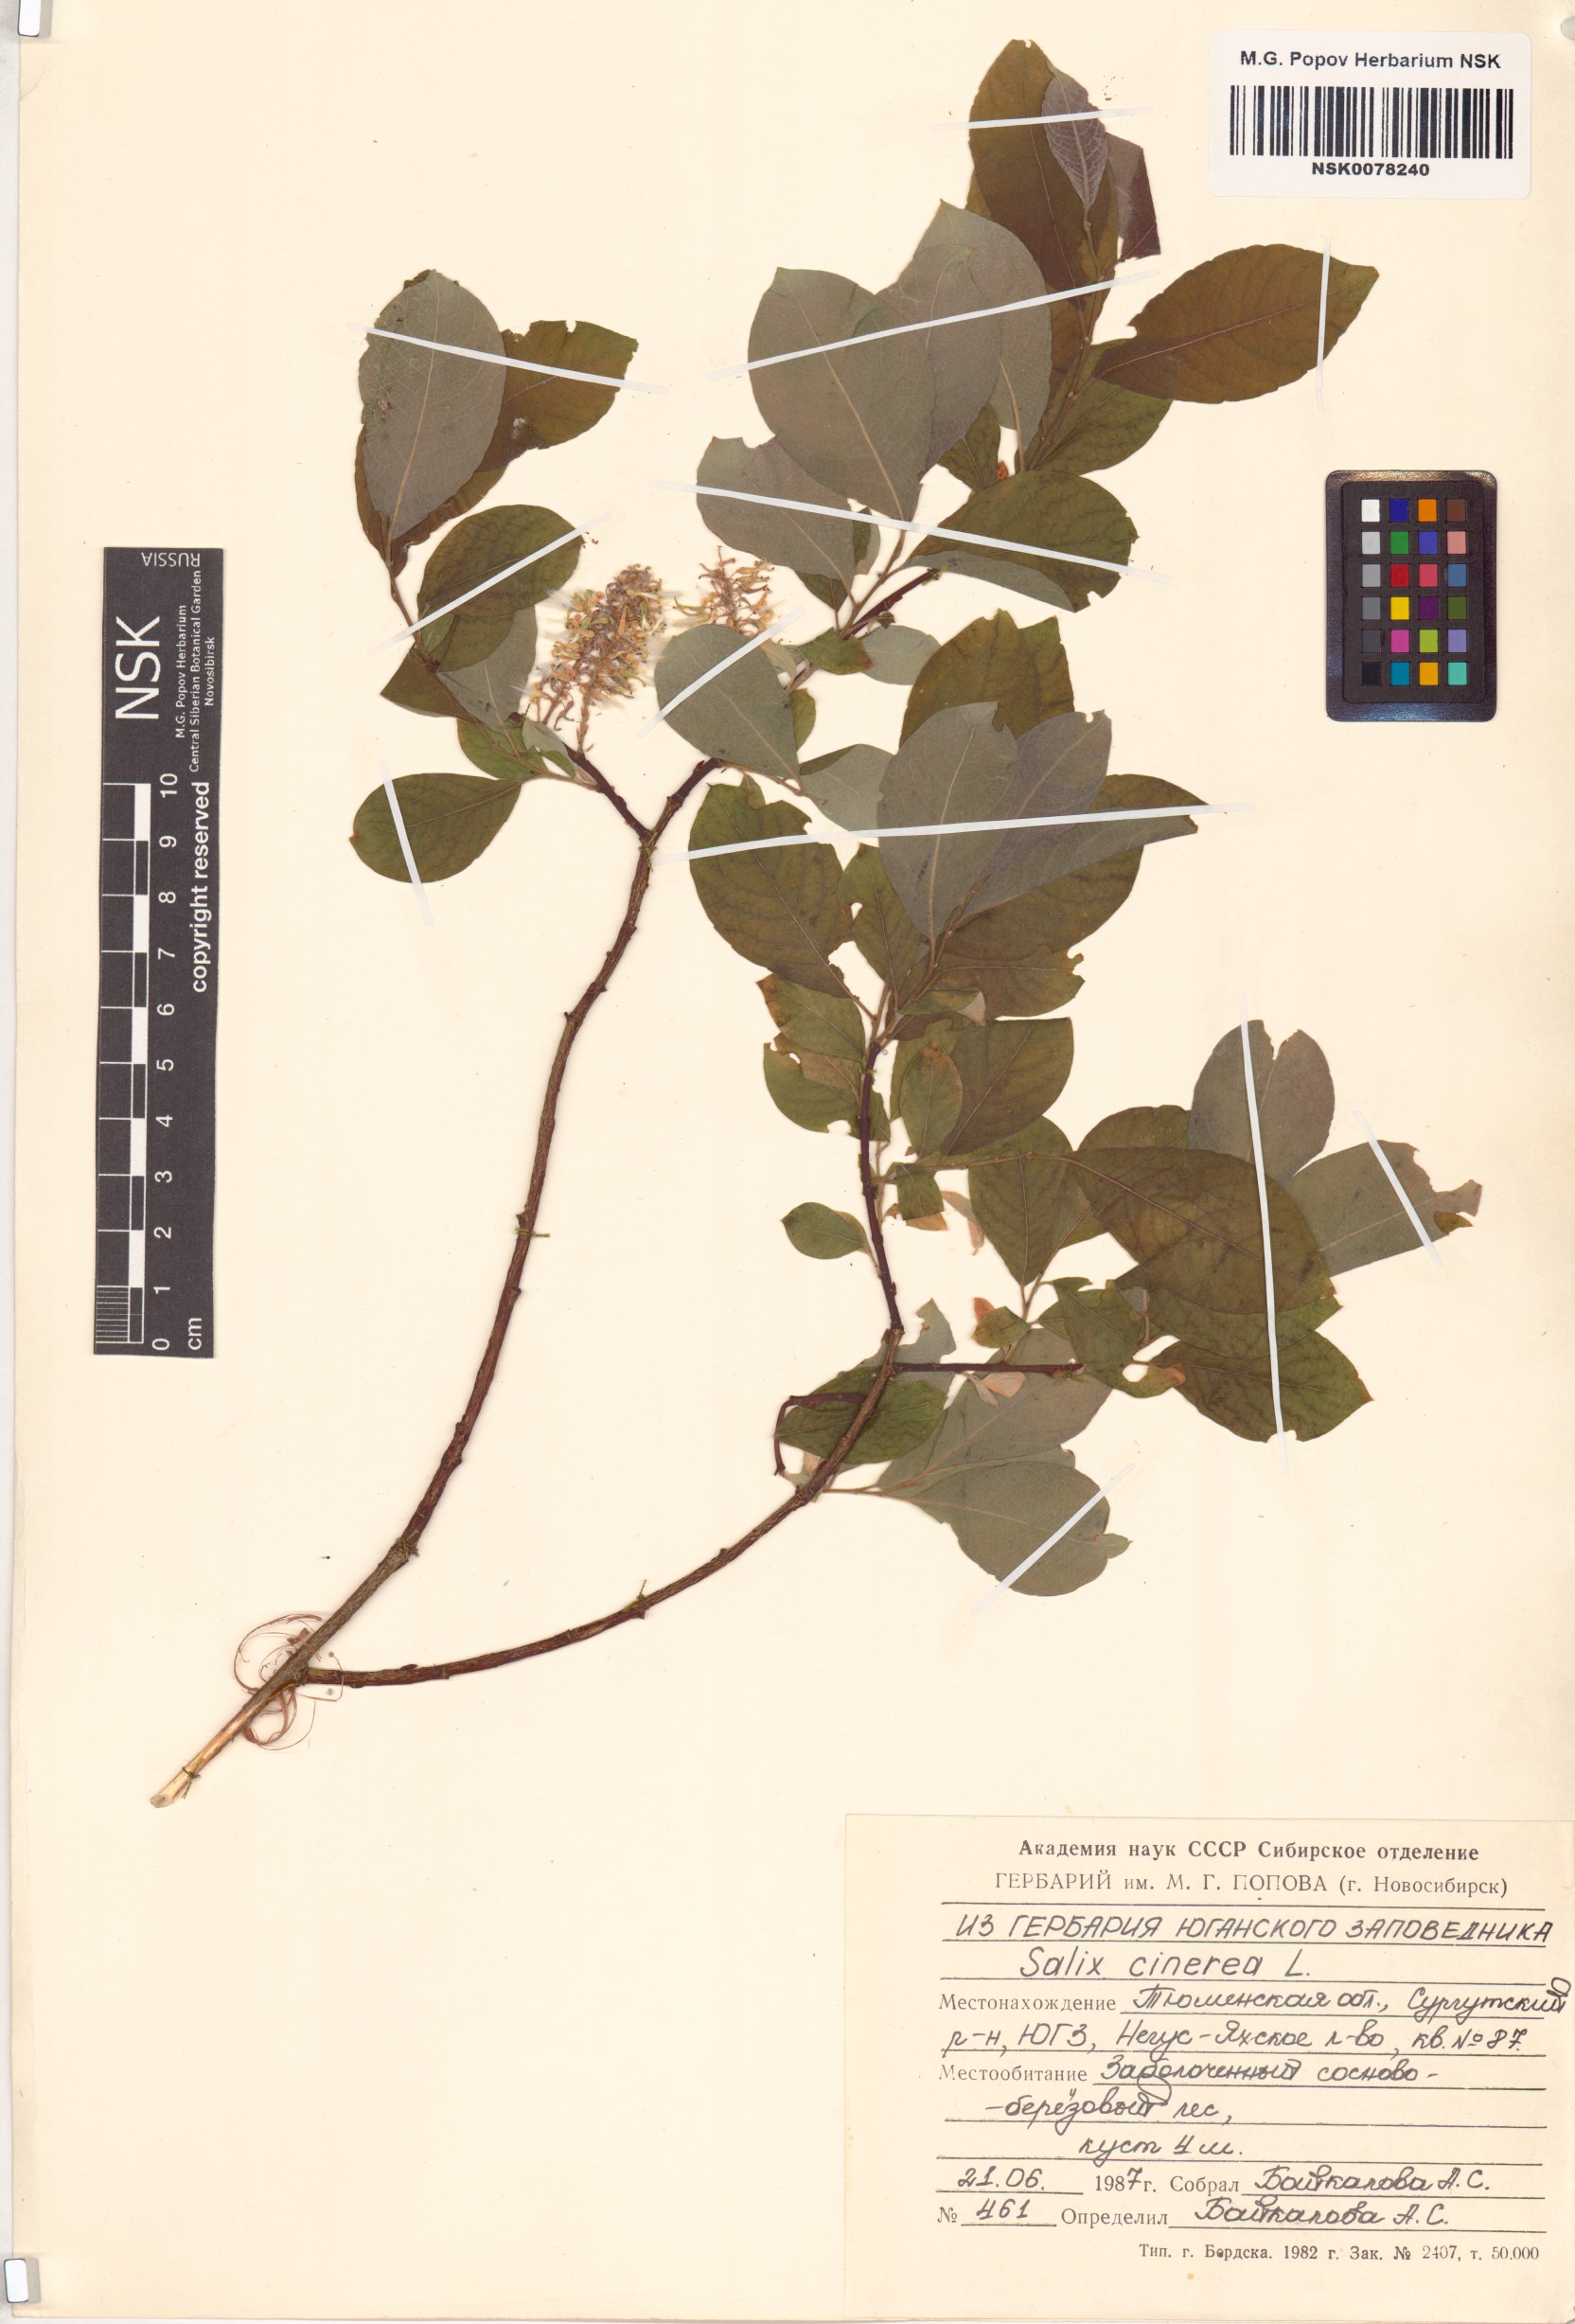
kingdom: Plantae
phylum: Tracheophyta
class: Magnoliopsida
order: Malpighiales
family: Salicaceae
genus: Salix
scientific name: Salix cinerea
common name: Common sallow
